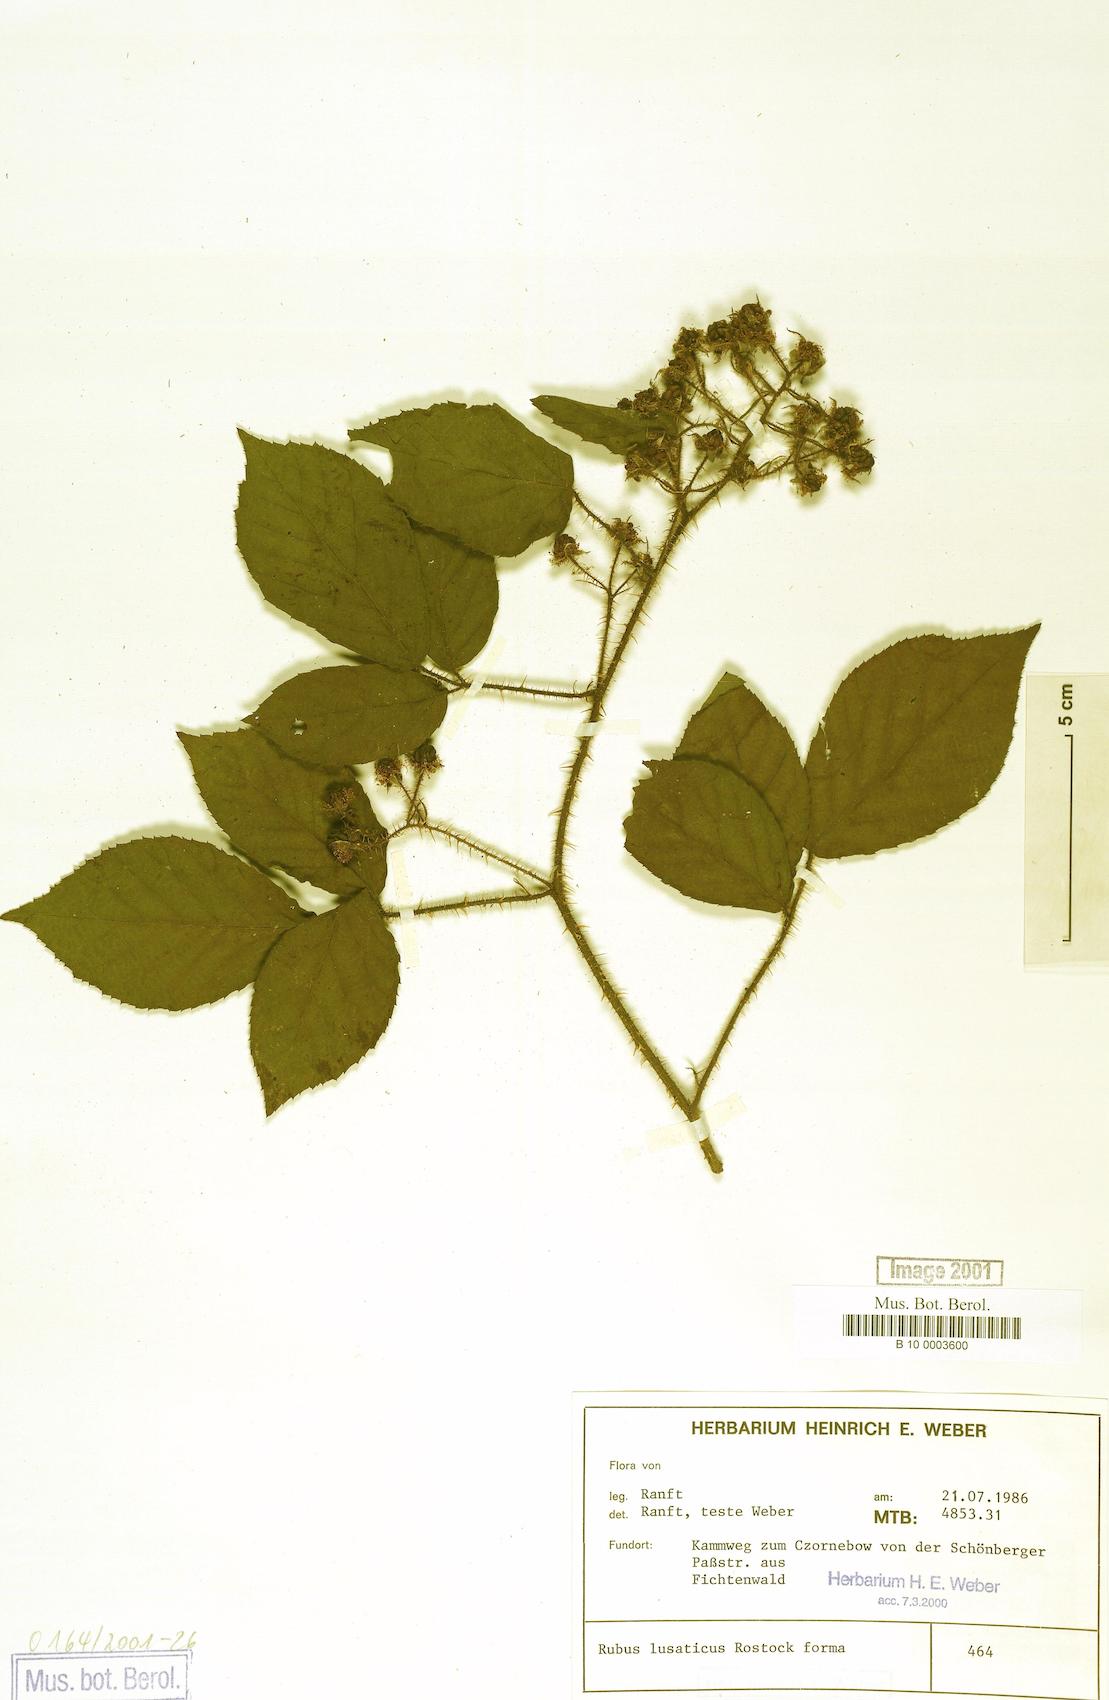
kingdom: Plantae
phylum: Tracheophyta
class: Magnoliopsida
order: Rosales
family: Rosaceae
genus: Rubus
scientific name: Rubus lusaticus
